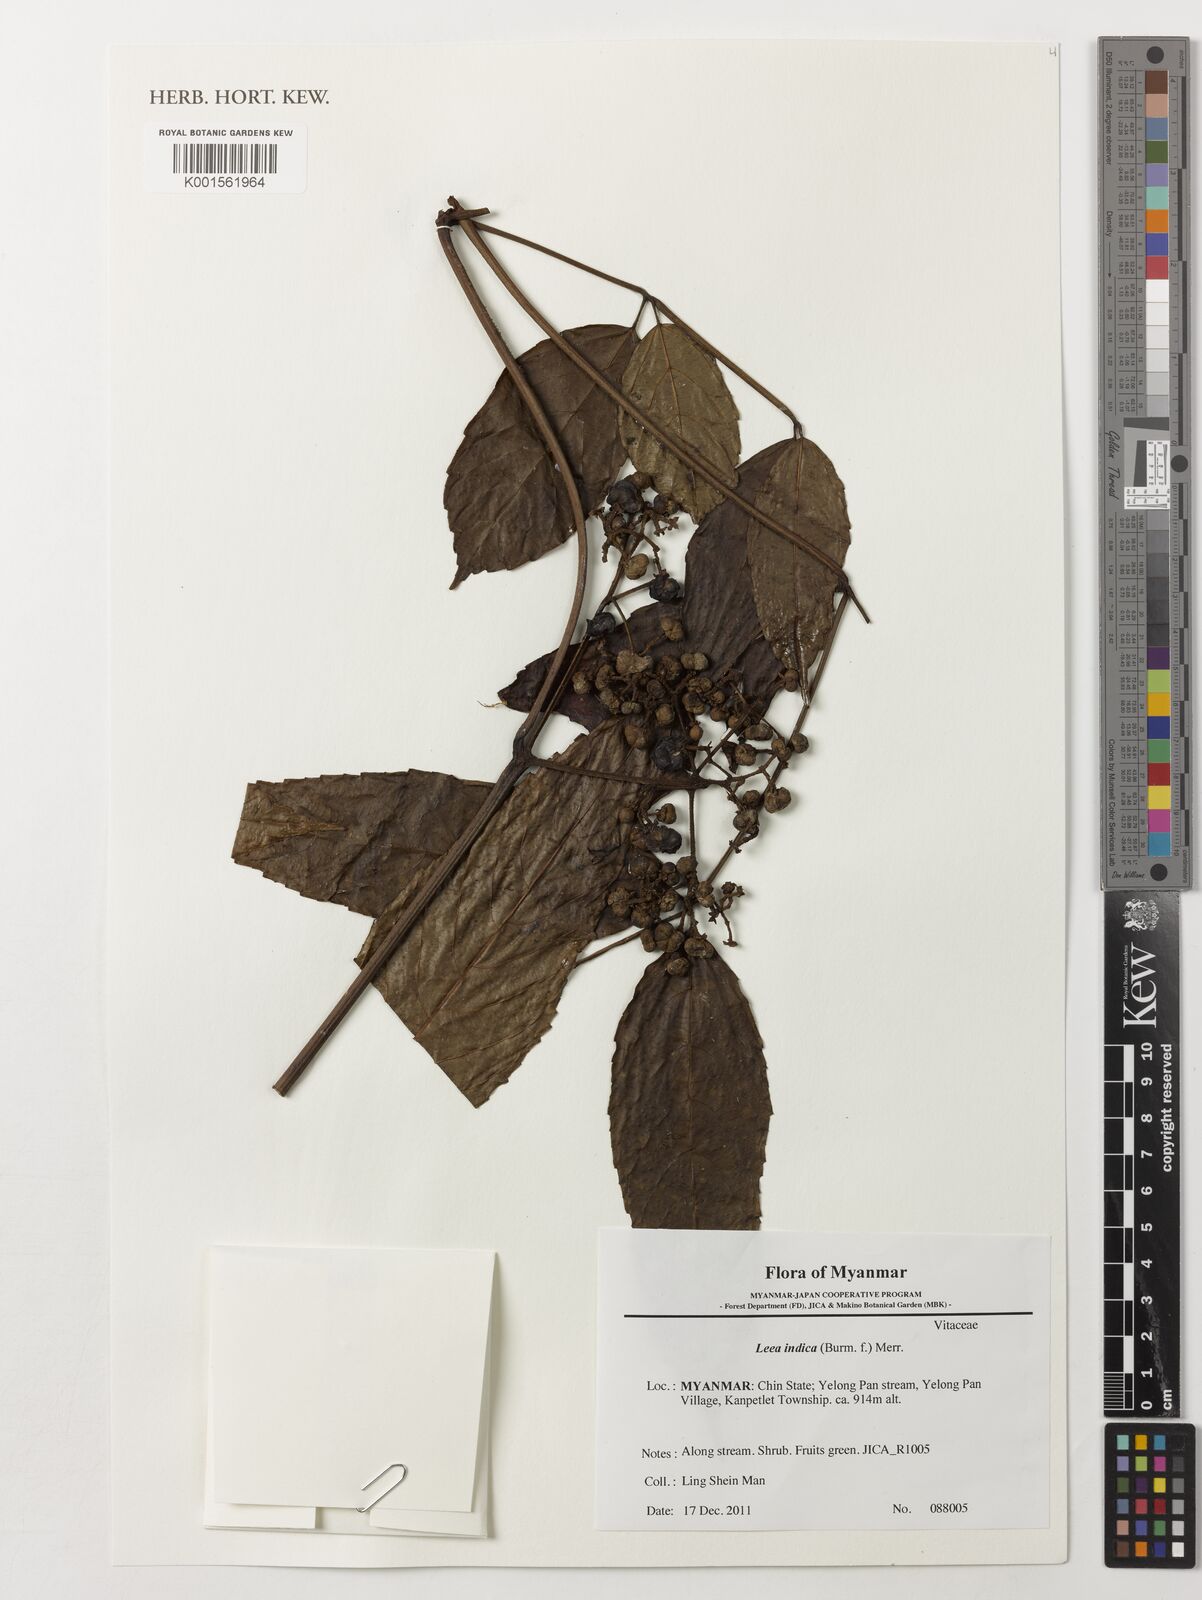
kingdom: Plantae
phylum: Tracheophyta
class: Magnoliopsida
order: Vitales
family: Vitaceae
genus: Leea
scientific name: Leea indica
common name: Bandicoot-berry
